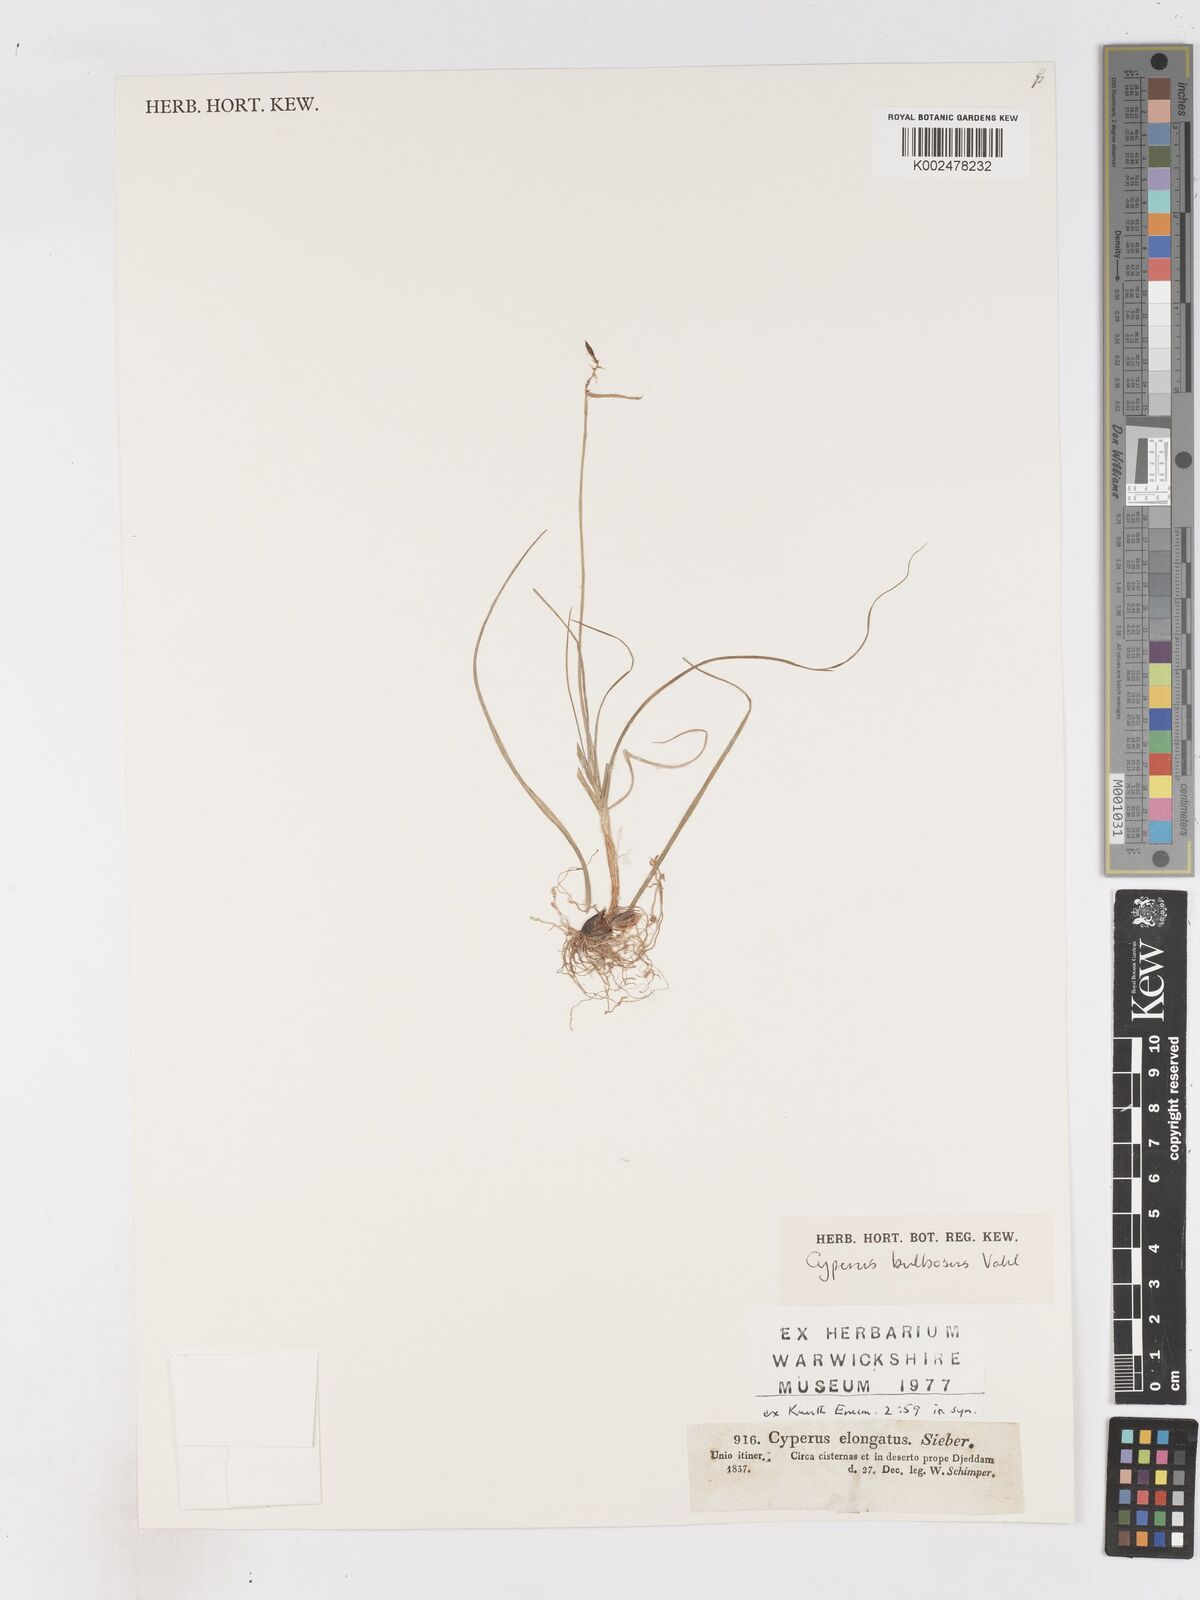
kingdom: Plantae
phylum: Tracheophyta
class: Liliopsida
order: Poales
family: Cyperaceae
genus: Cyperus
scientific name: Cyperus bulbosus
